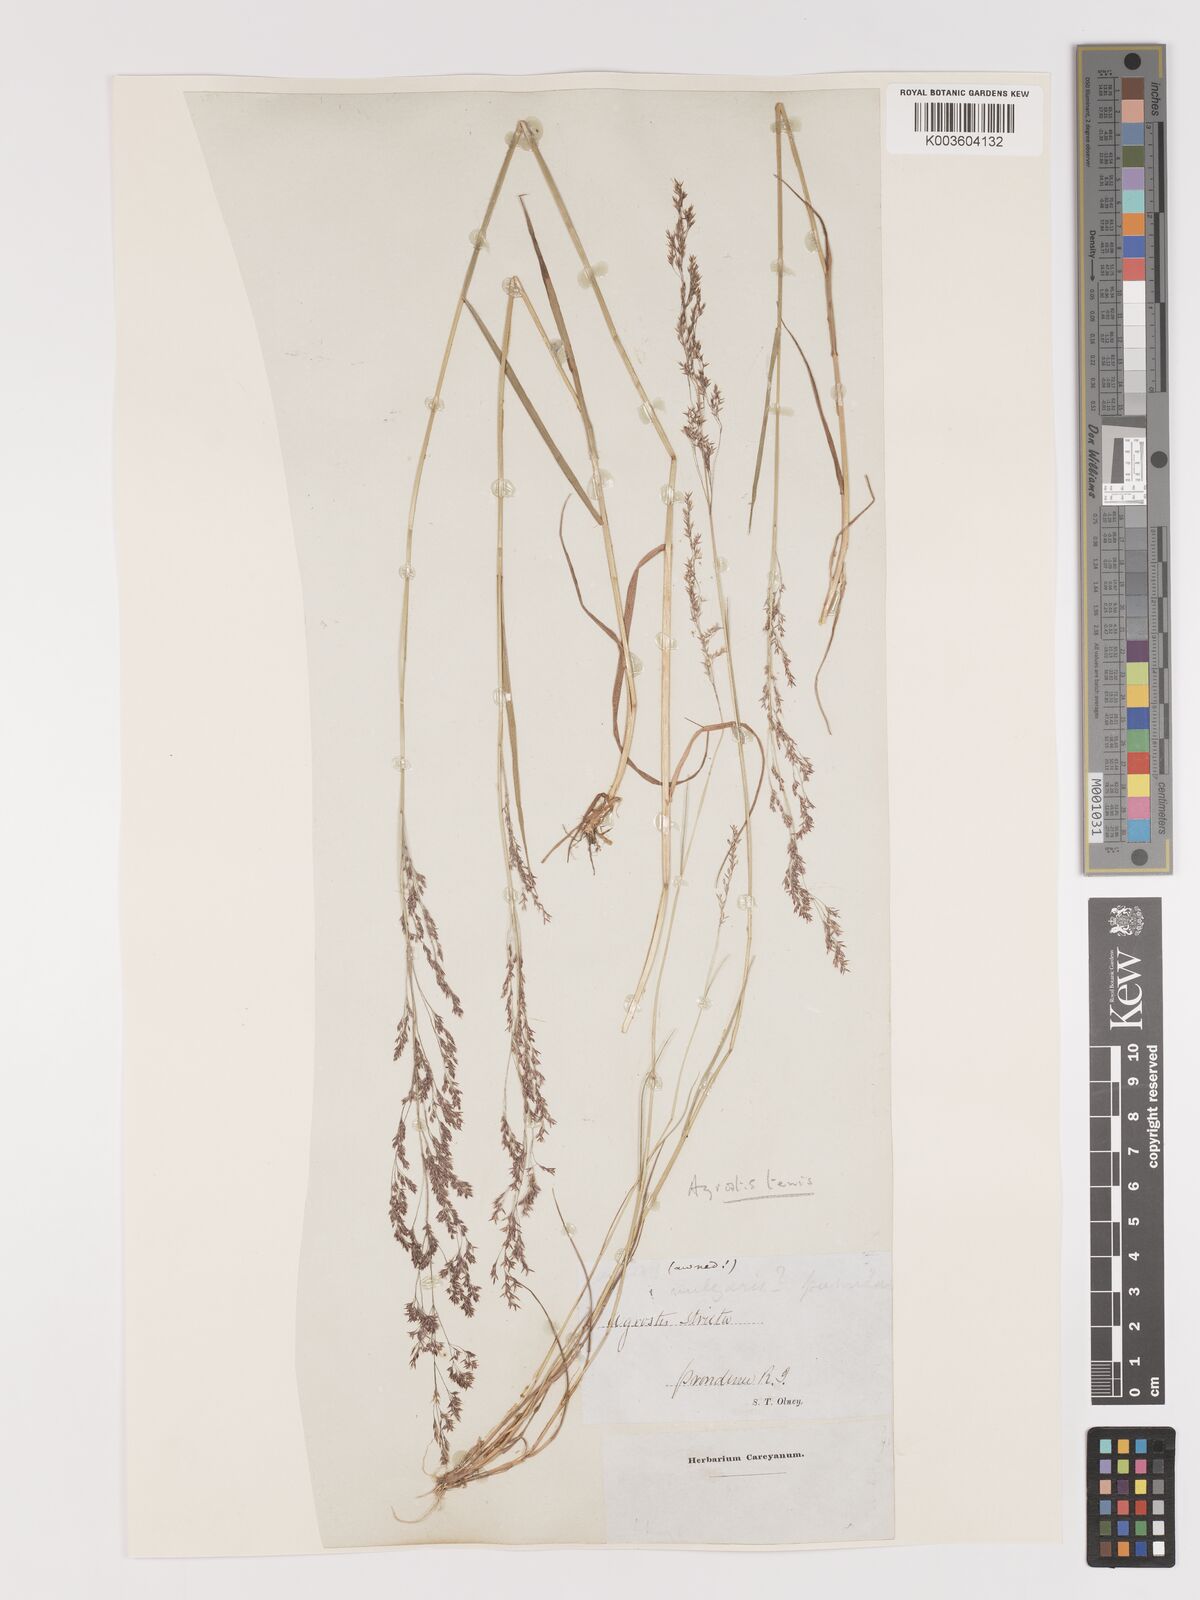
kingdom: Plantae
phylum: Tracheophyta
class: Liliopsida
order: Poales
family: Poaceae
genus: Agrostis
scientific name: Agrostis capillaris
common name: Colonial bentgrass
